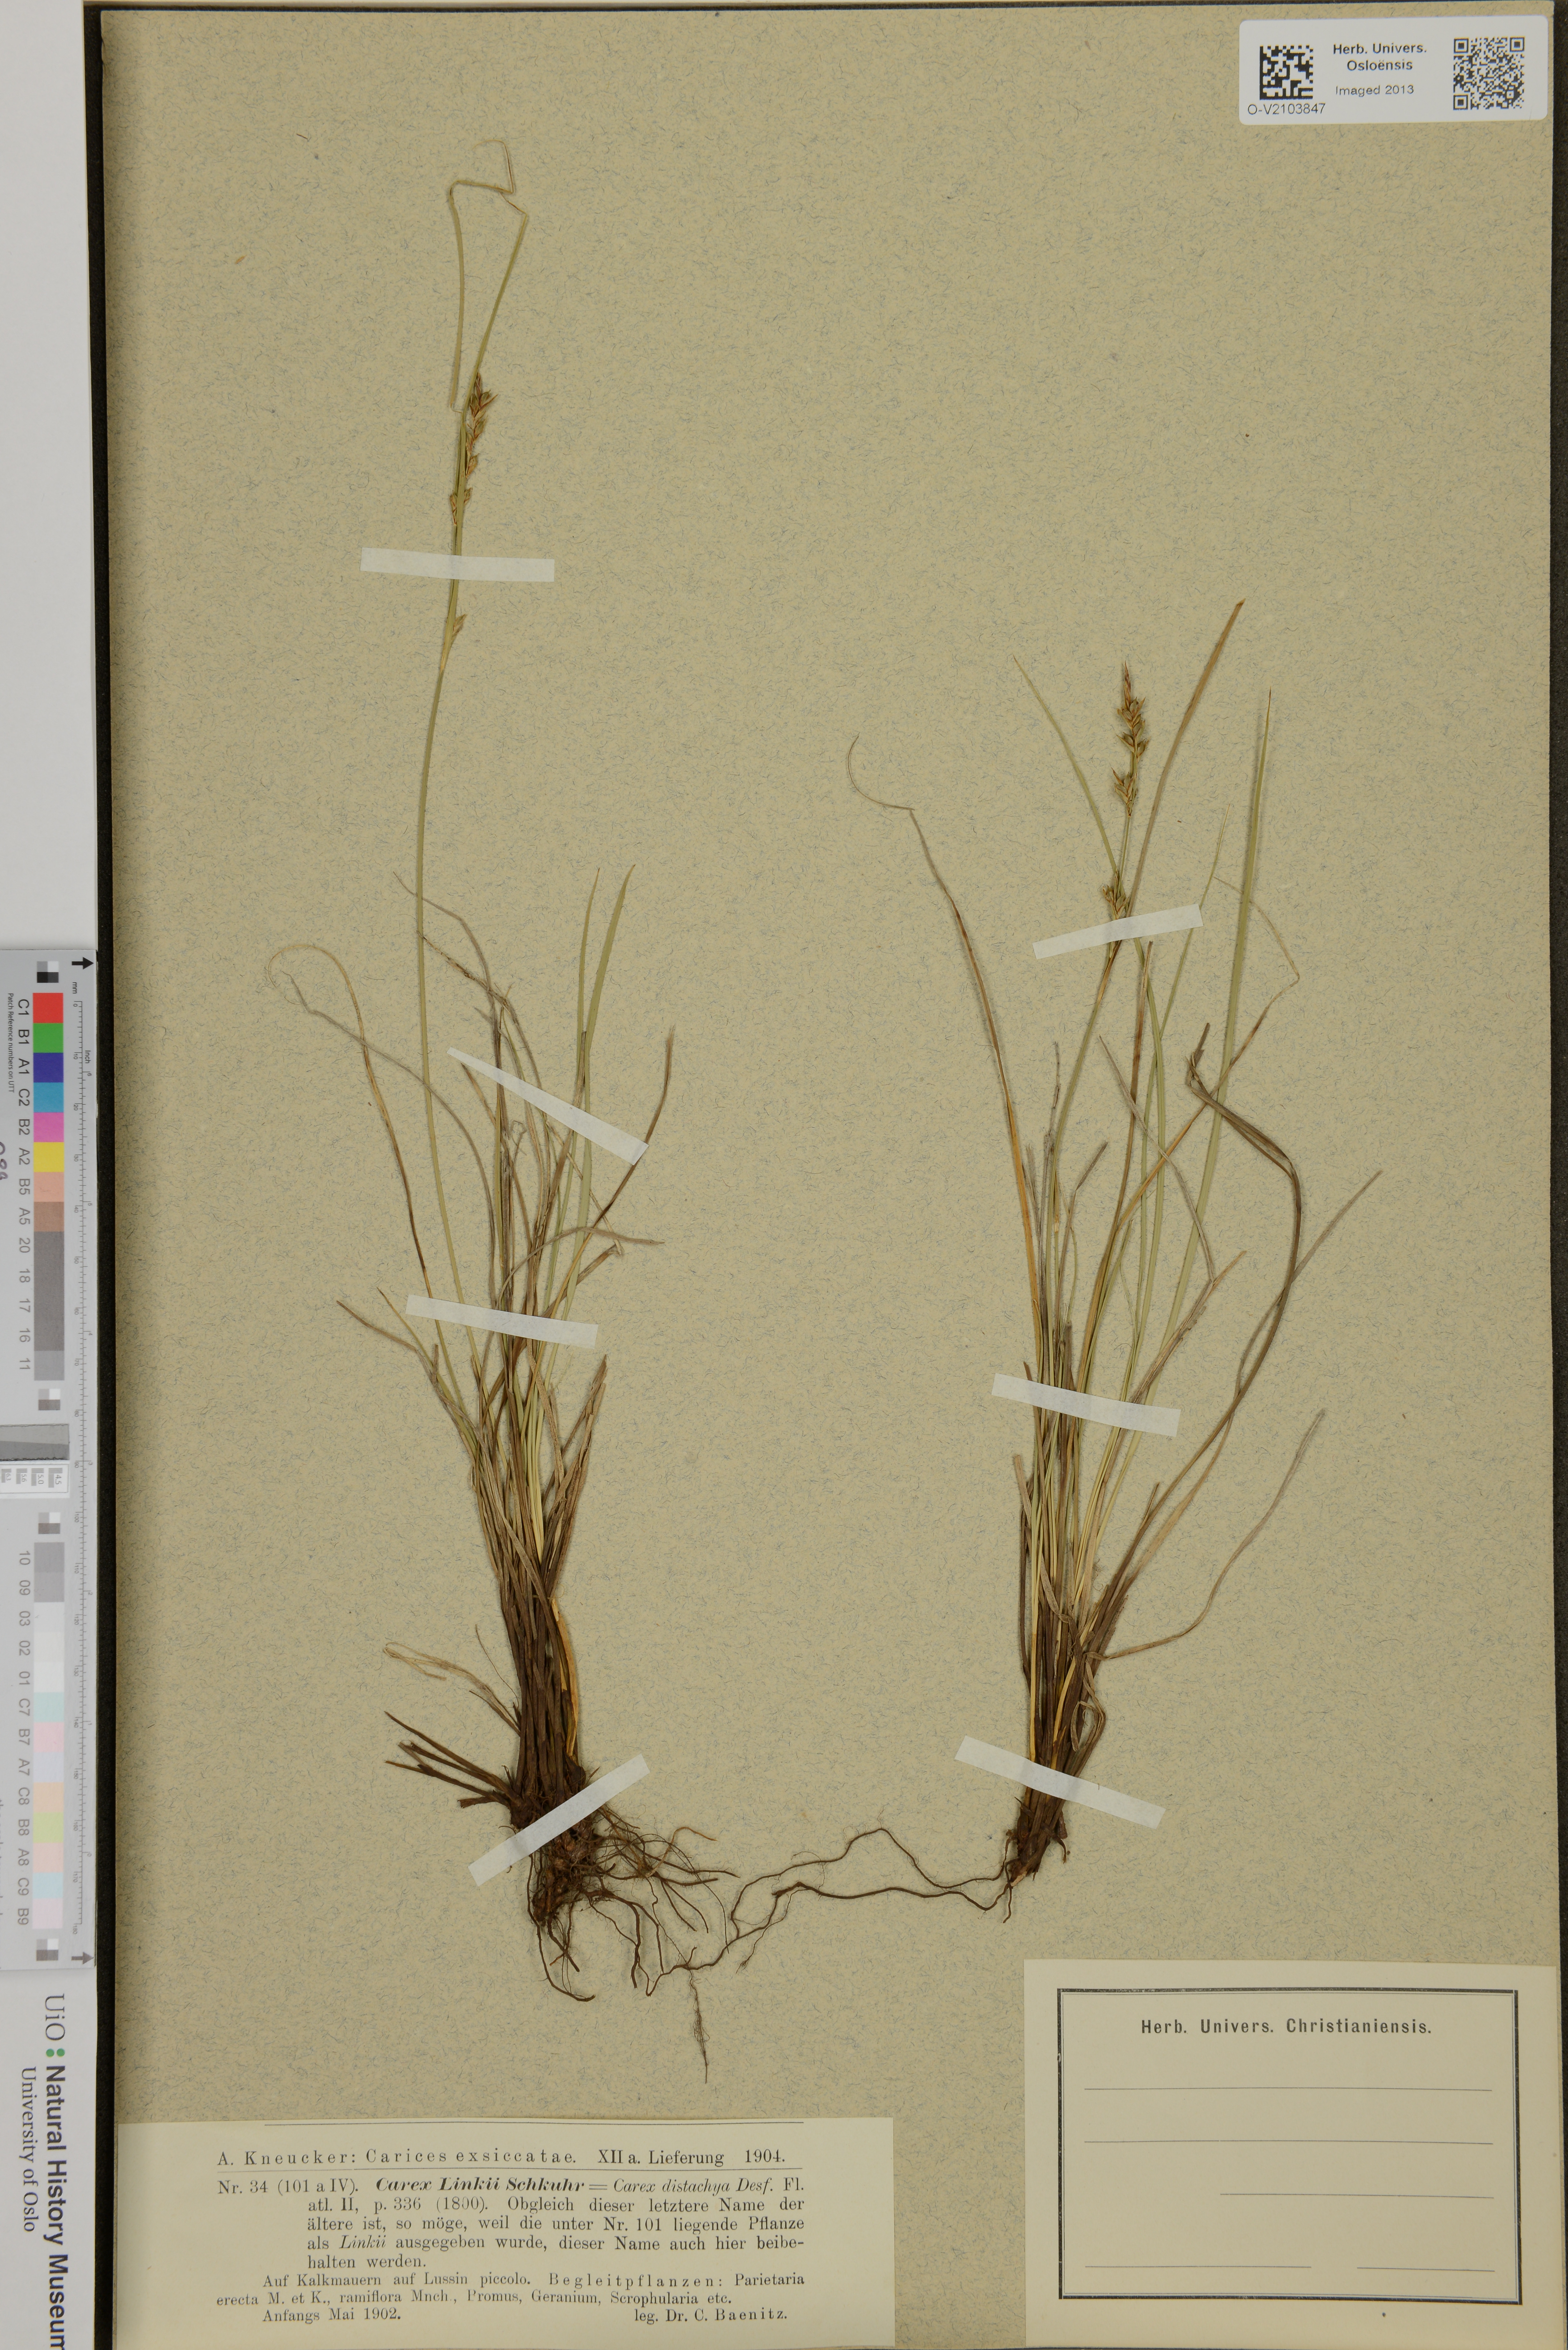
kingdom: Plantae
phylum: Tracheophyta
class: Liliopsida
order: Poales
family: Cyperaceae
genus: Carex
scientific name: Carex distachya
